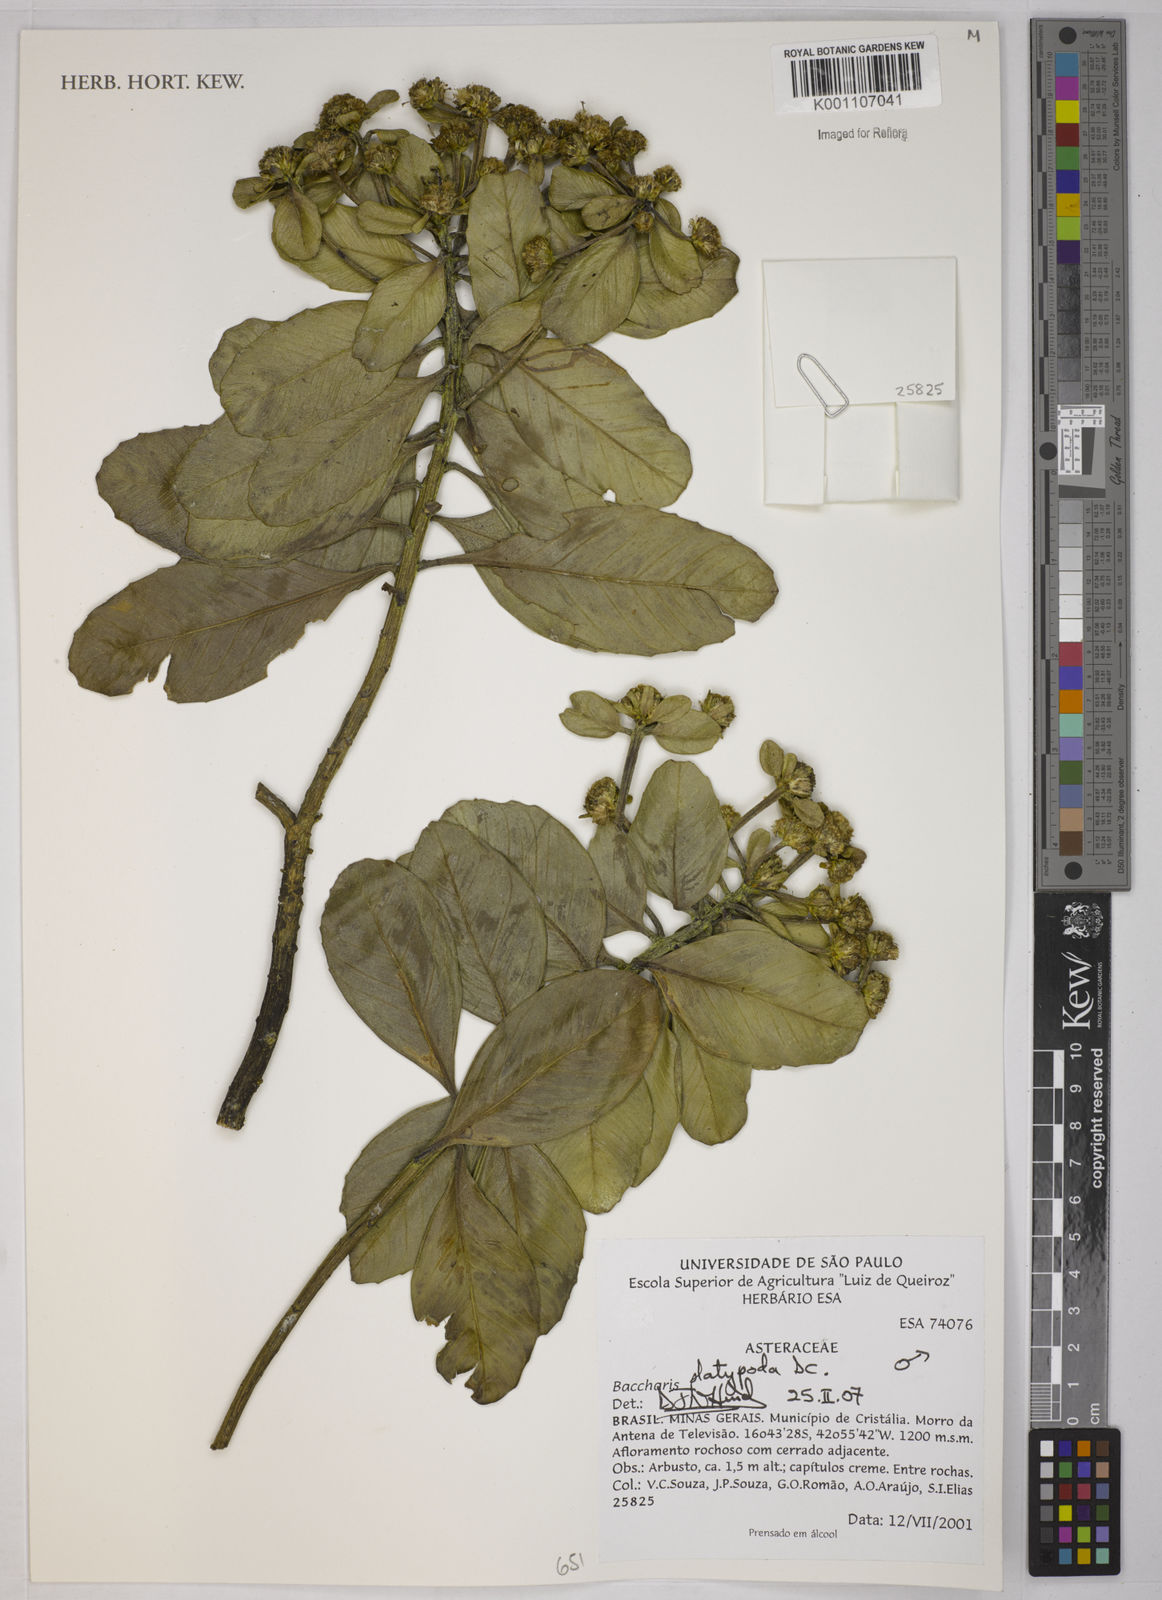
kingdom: Plantae
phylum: Tracheophyta
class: Magnoliopsida
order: Asterales
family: Asteraceae
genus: Baccharis
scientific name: Baccharis platypoda
